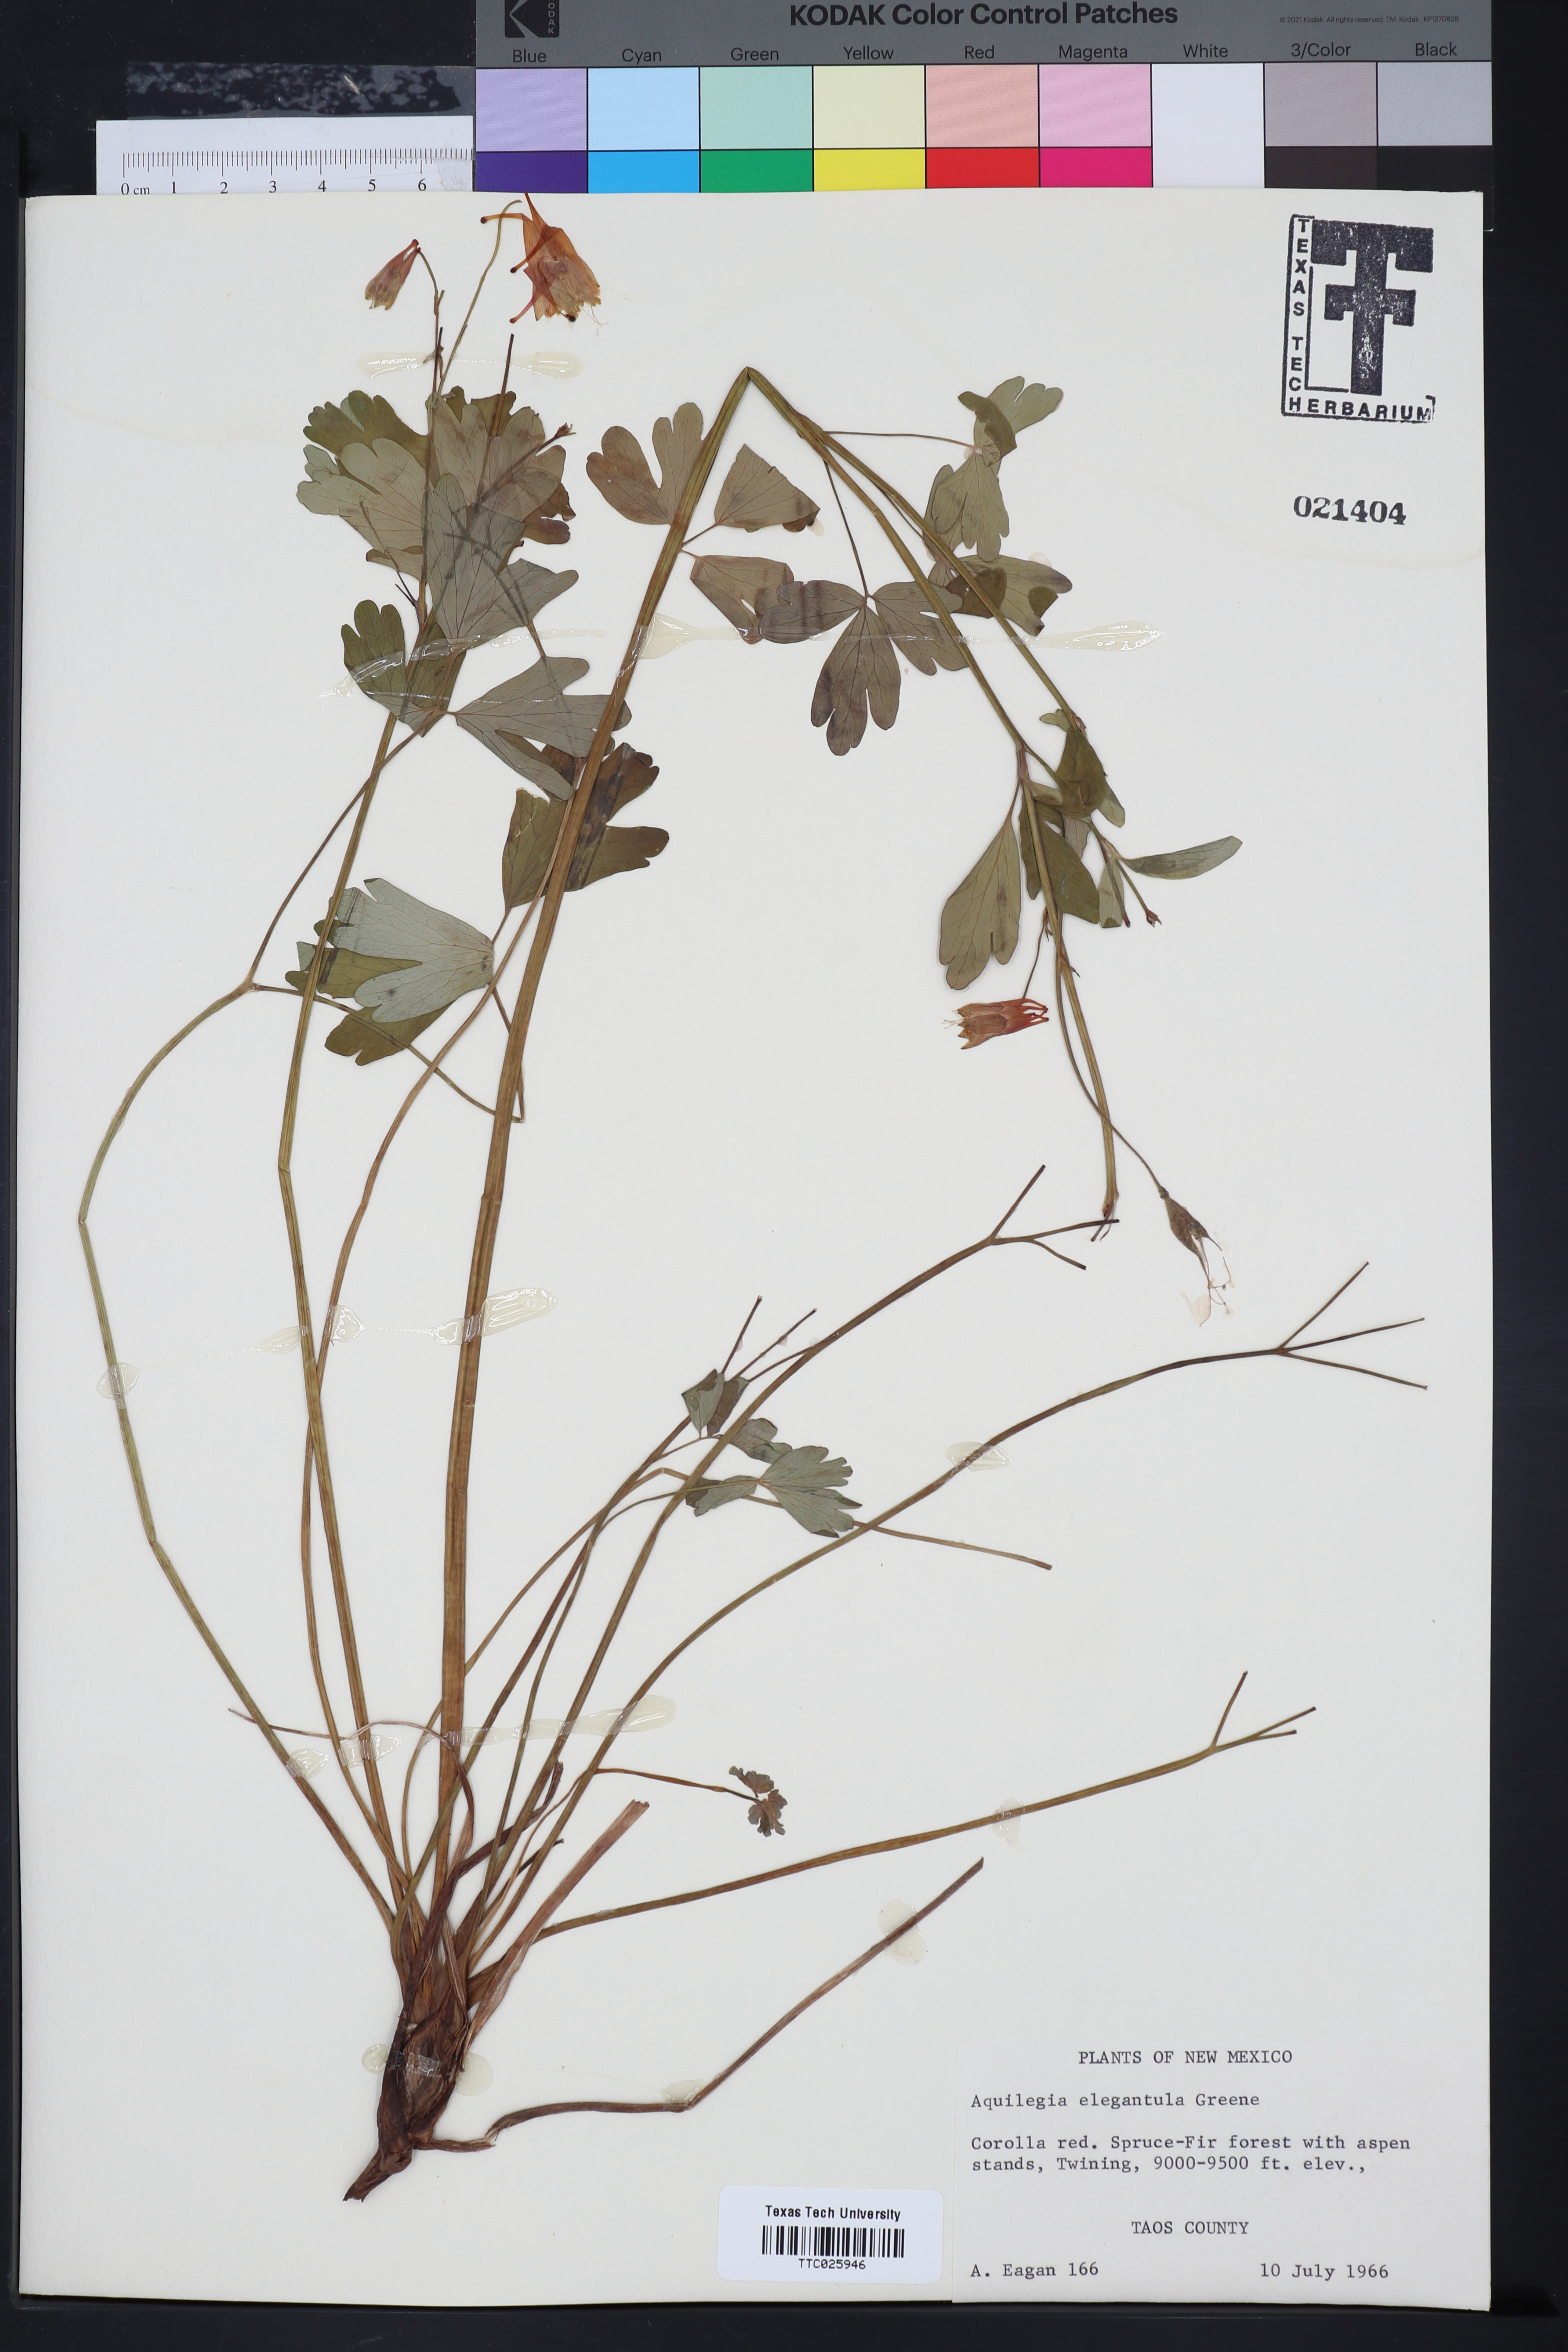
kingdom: Plantae
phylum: Tracheophyta
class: Magnoliopsida
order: Ranunculales
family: Ranunculaceae
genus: Aquilegia
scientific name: Aquilegia elegantula
